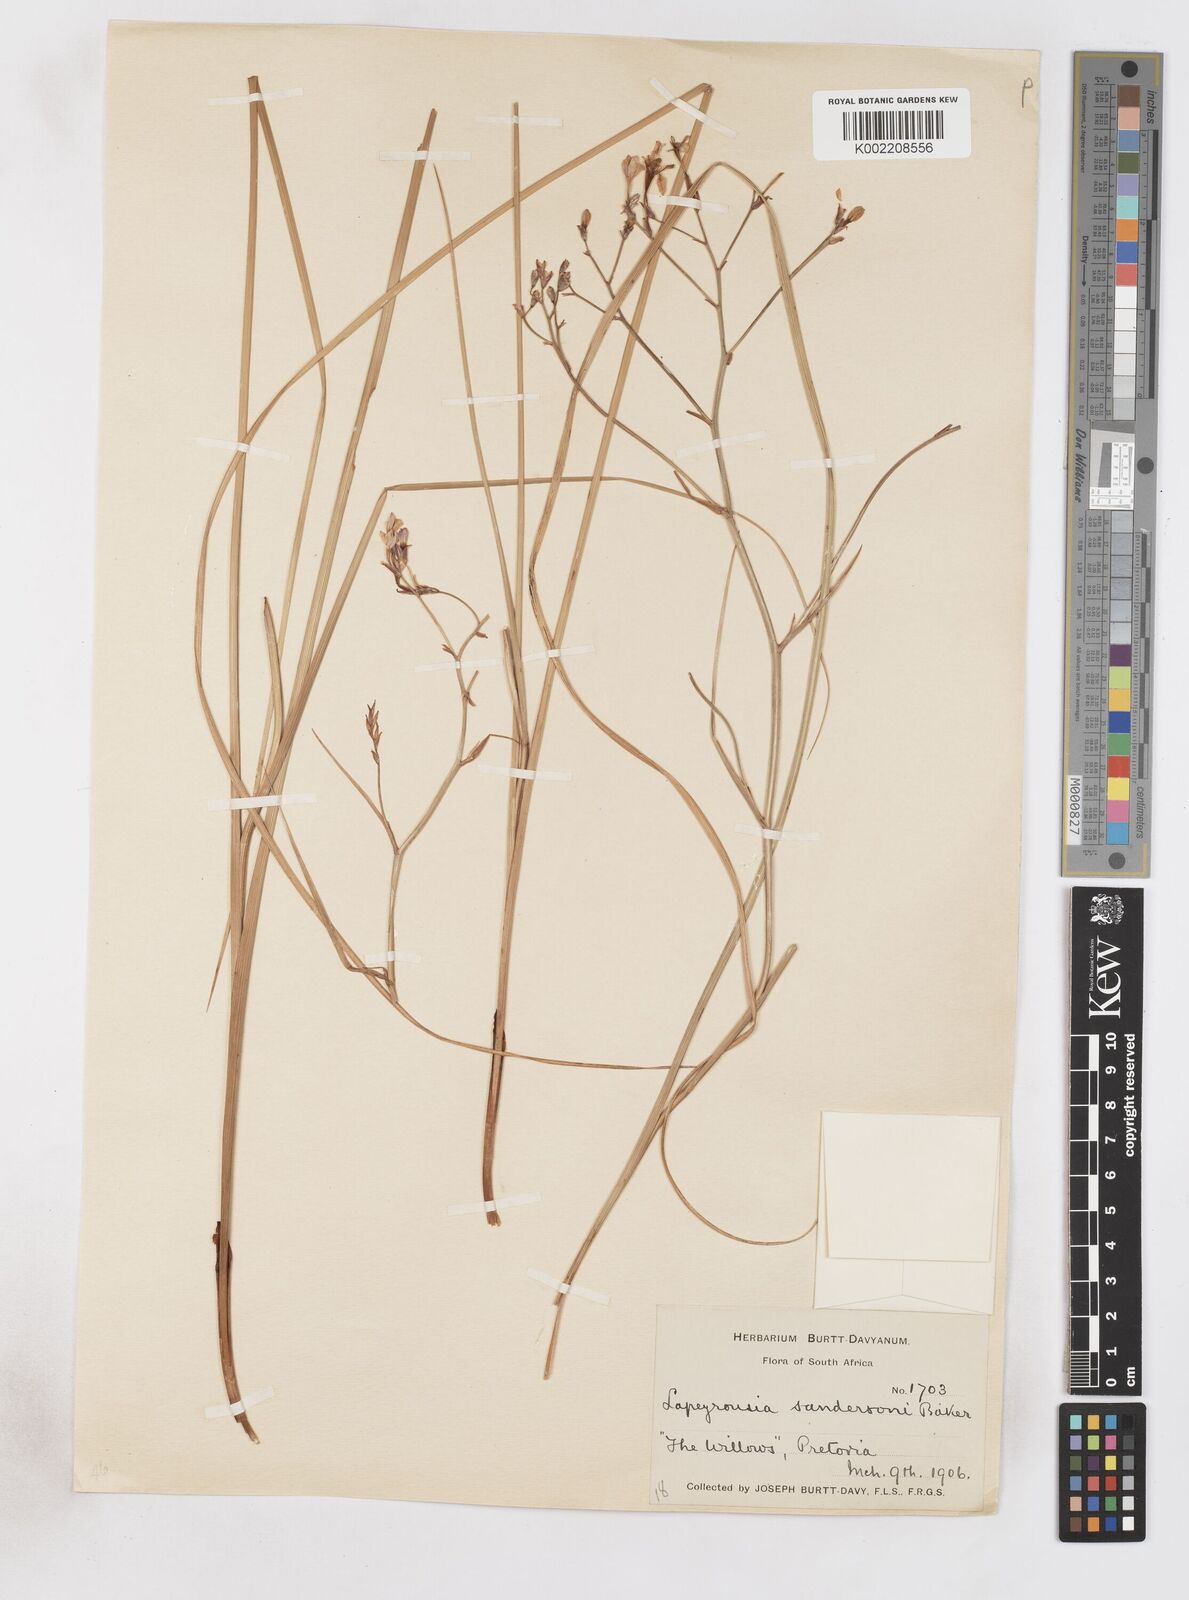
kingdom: Plantae
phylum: Tracheophyta
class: Liliopsida
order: Asparagales
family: Iridaceae
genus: Afrosolen
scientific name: Afrosolen sandersonii
